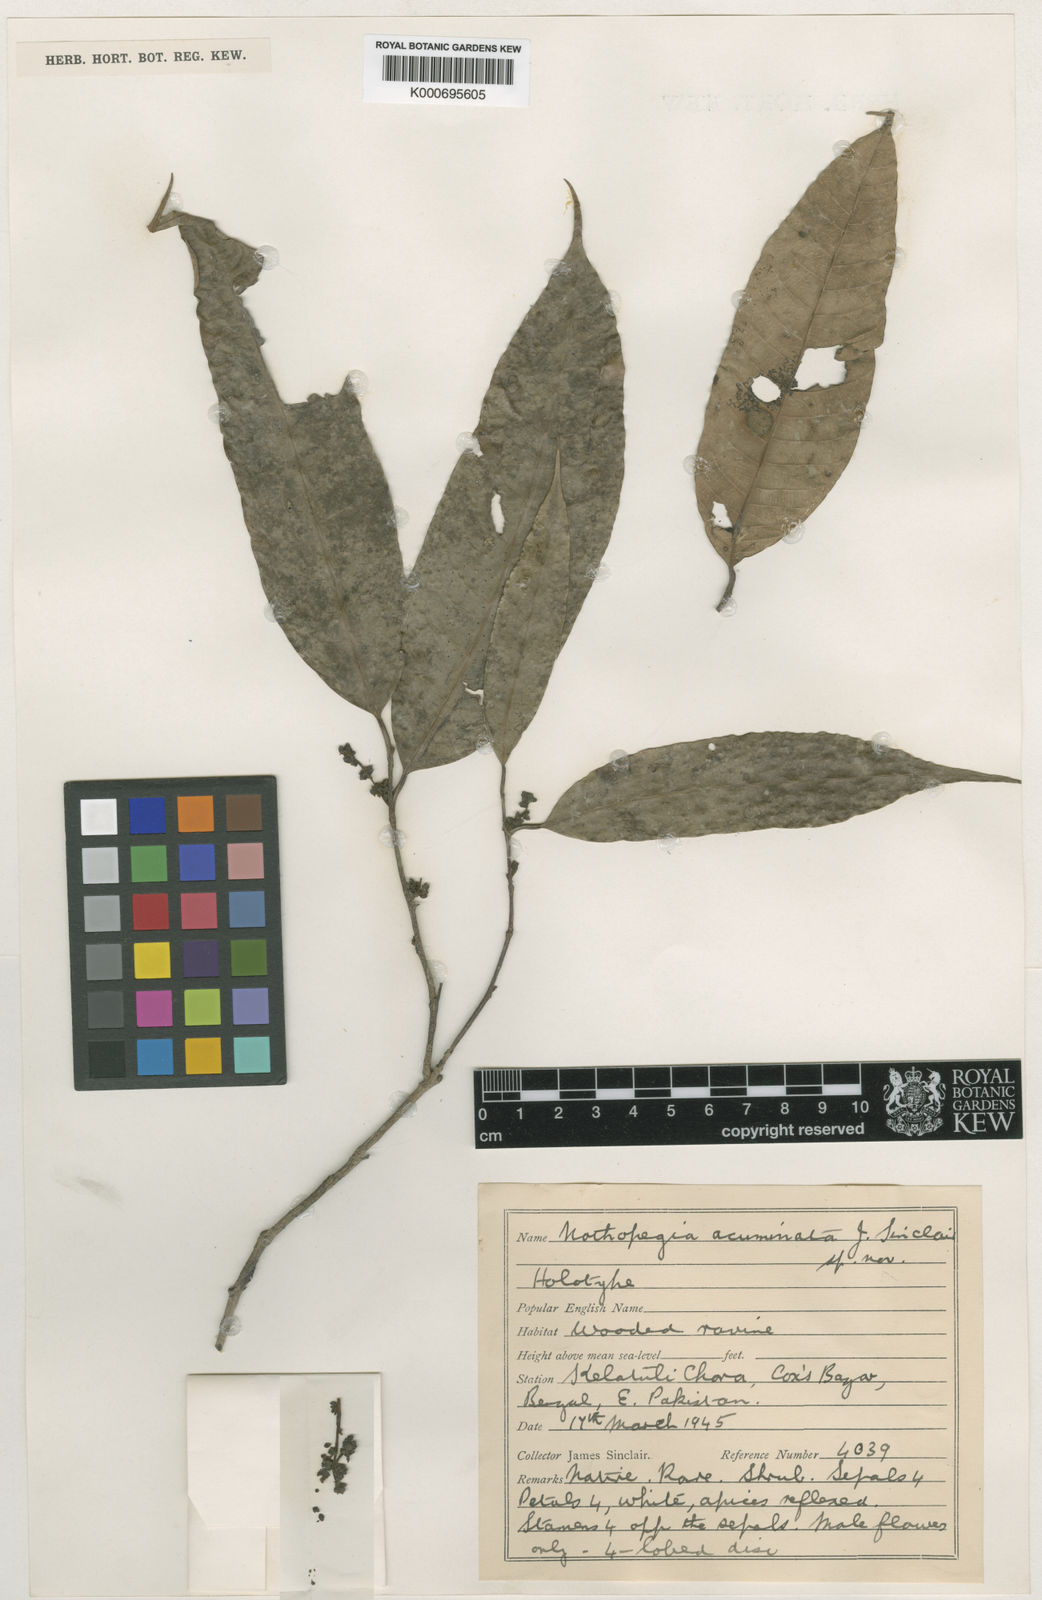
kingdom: Plantae
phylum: Tracheophyta
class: Magnoliopsida
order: Sapindales
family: Anacardiaceae
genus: Nothopegia
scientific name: Nothopegia acuminata
